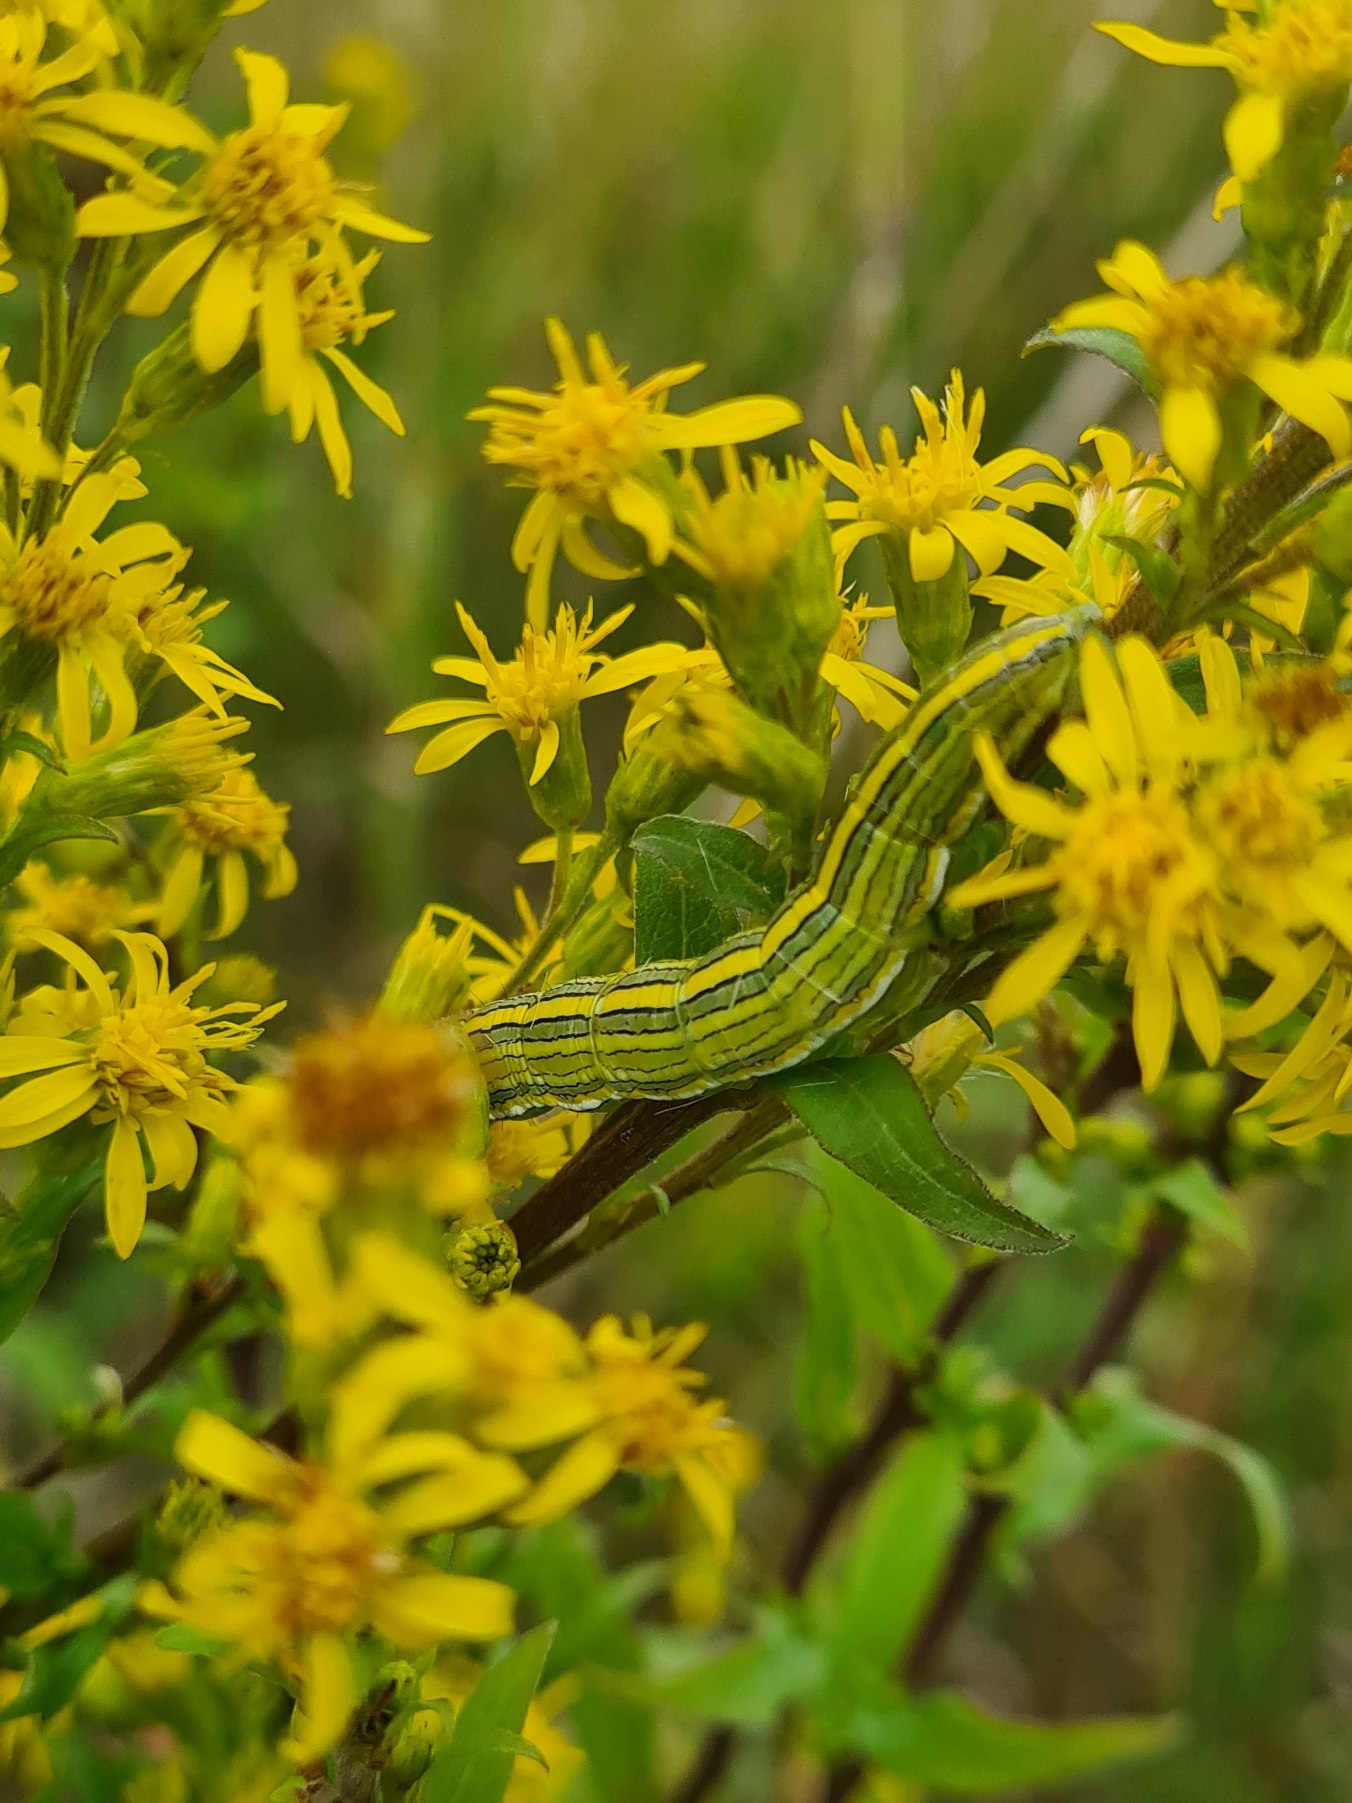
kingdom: Animalia
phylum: Arthropoda
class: Insecta
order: Lepidoptera
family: Noctuidae
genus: Cucullia
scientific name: Cucullia asteris
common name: Asters-hætteugle
